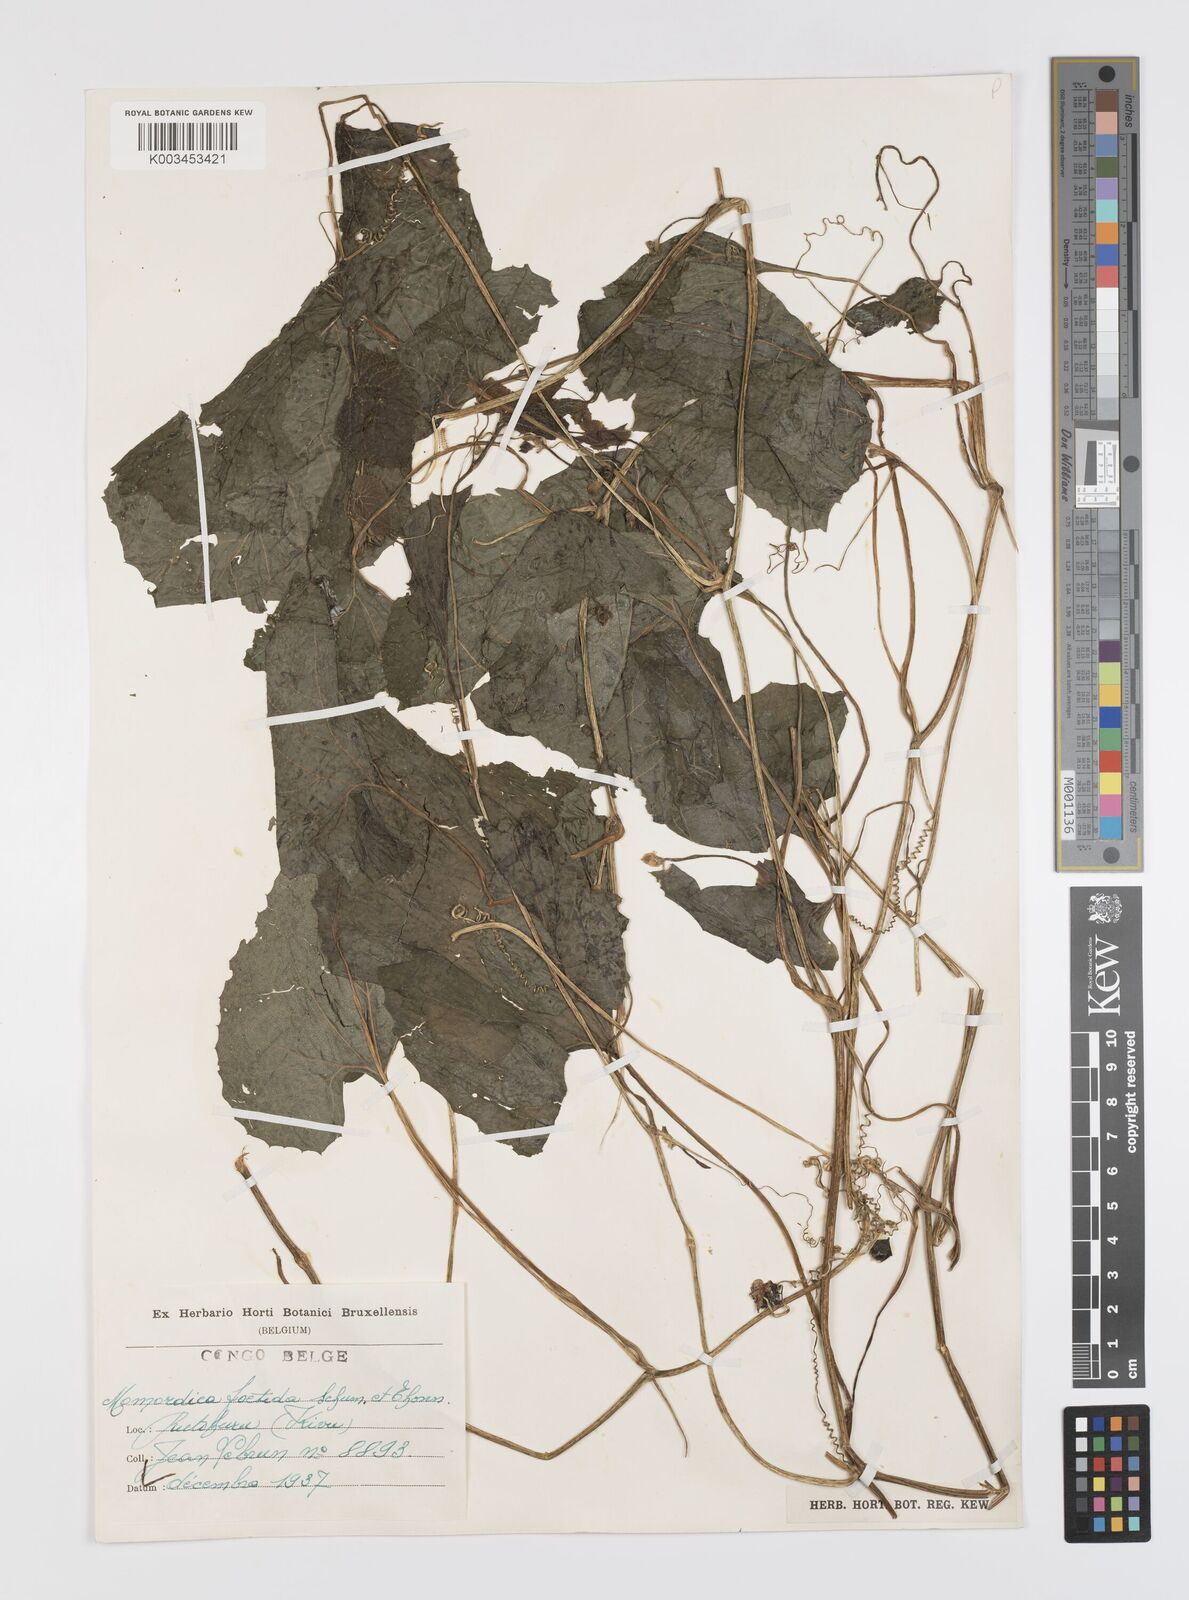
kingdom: Plantae
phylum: Tracheophyta
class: Magnoliopsida
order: Cucurbitales
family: Cucurbitaceae
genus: Momordica
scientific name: Momordica foetida
